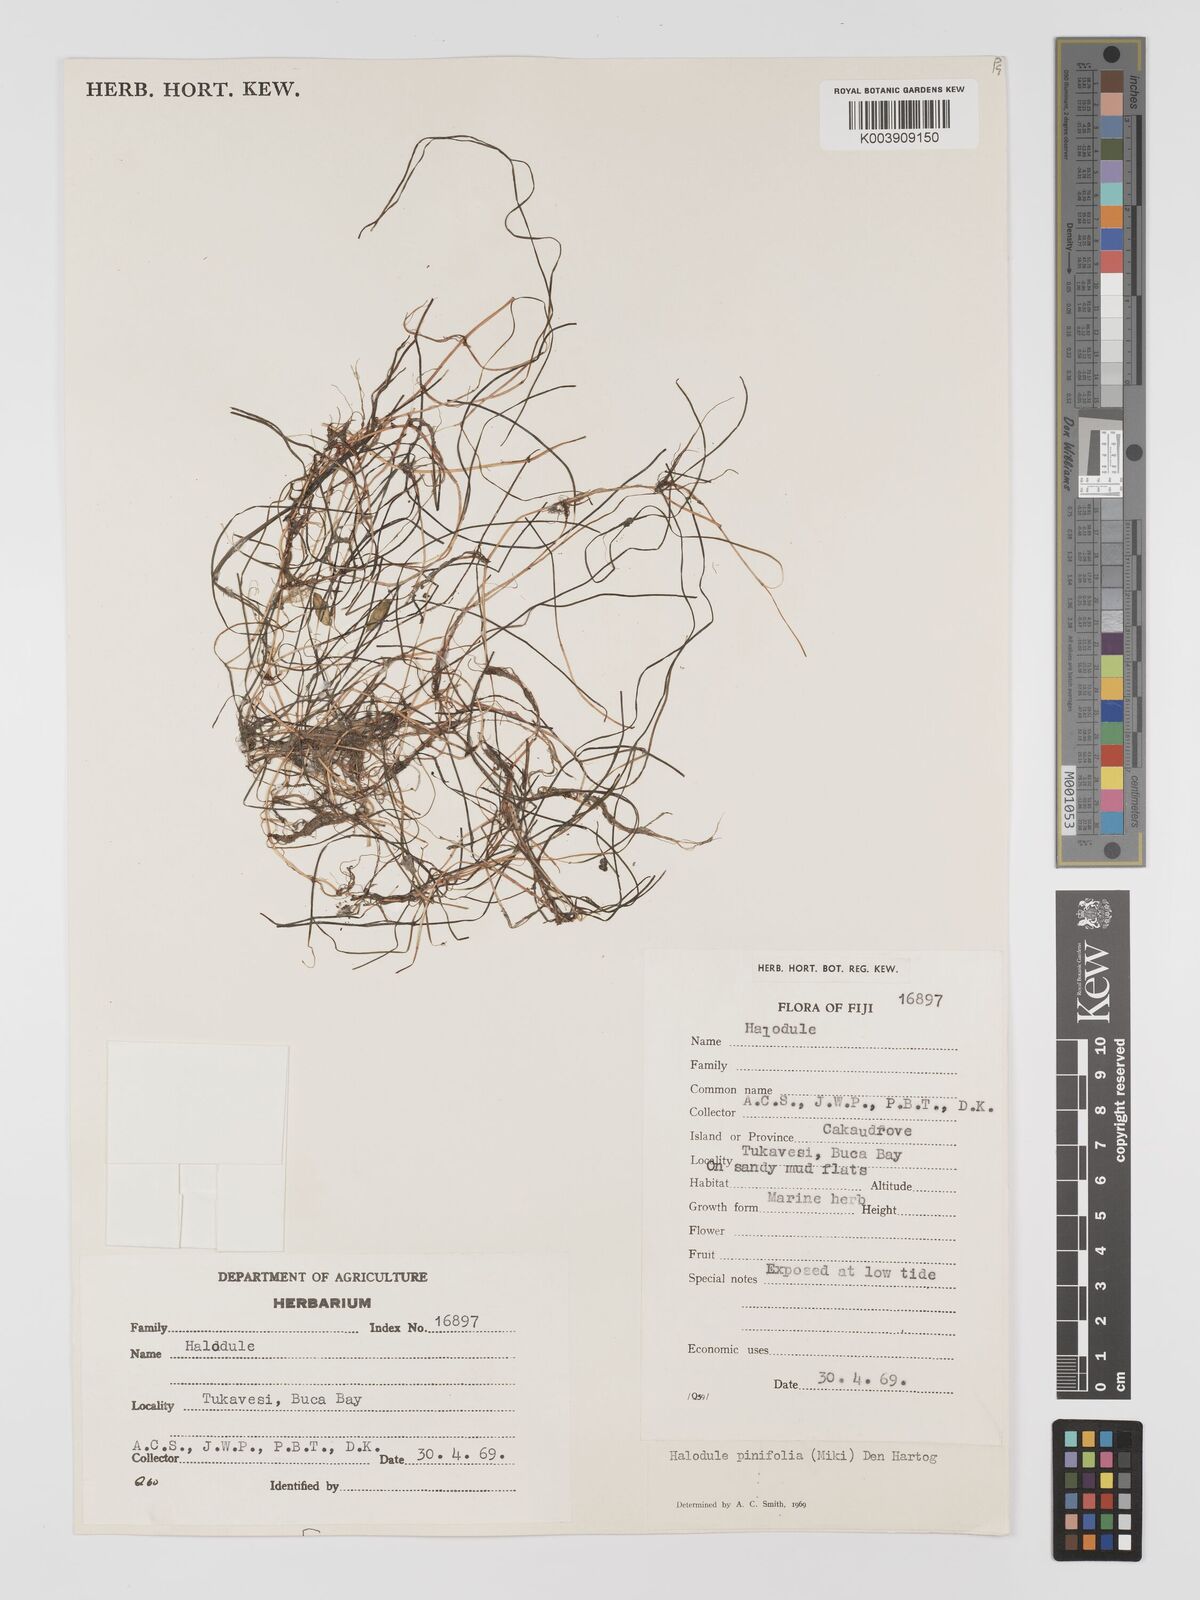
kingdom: Plantae
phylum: Tracheophyta
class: Liliopsida
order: Alismatales
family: Cymodoceaceae
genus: Halodule
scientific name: Halodule pinifolia
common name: Species code: hp
